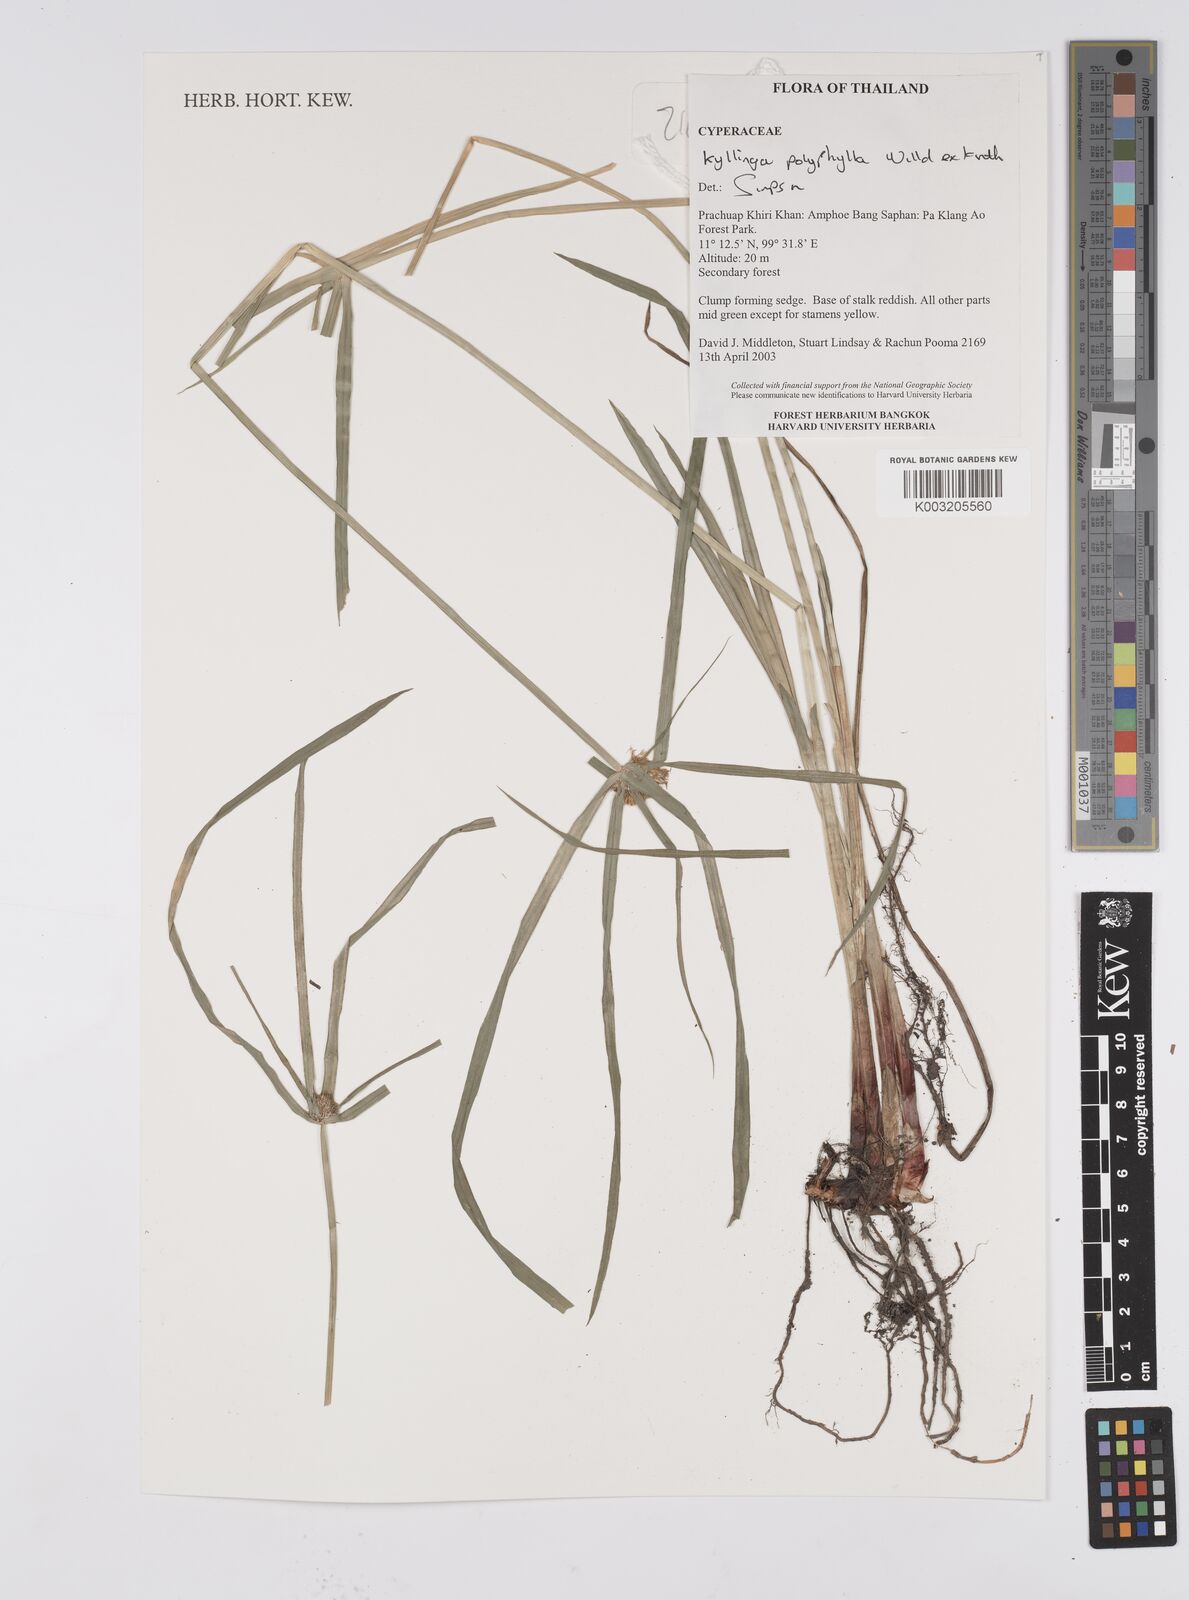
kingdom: Plantae
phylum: Tracheophyta
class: Liliopsida
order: Poales
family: Cyperaceae
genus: Cyperus
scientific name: Cyperus
